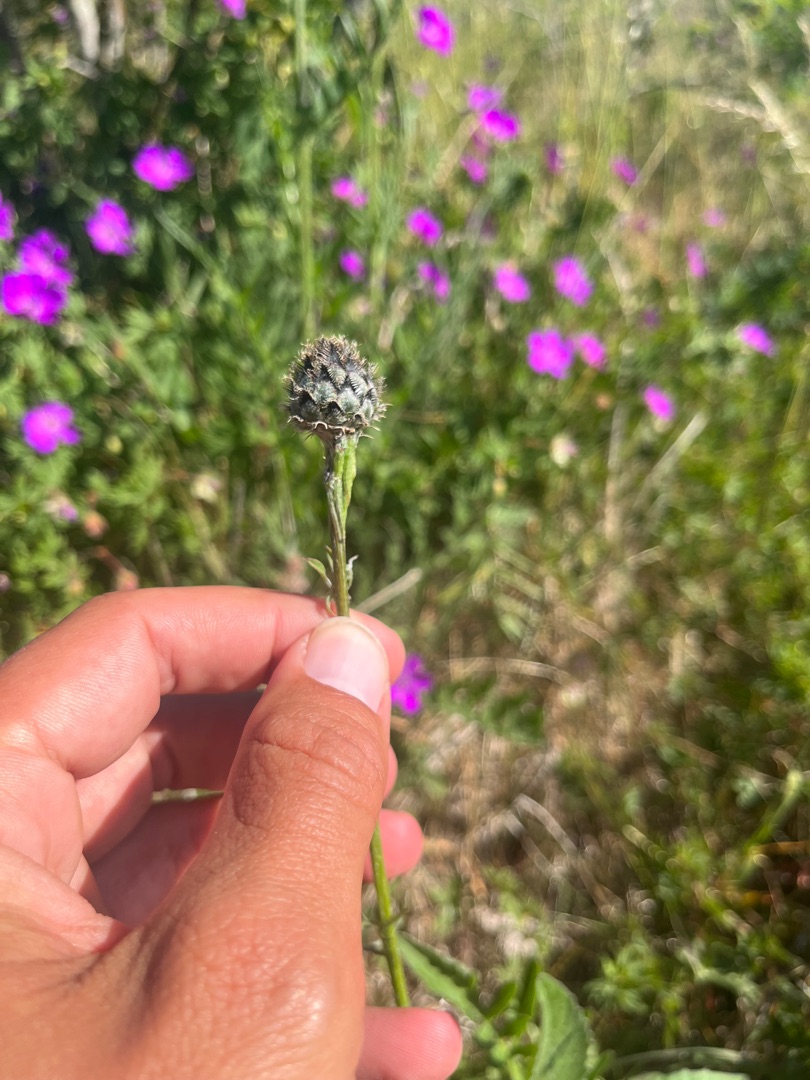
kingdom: Plantae
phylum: Tracheophyta
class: Magnoliopsida
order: Asterales
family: Asteraceae
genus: Centaurea
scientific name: Centaurea scabiosa
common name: Stor knopurt
